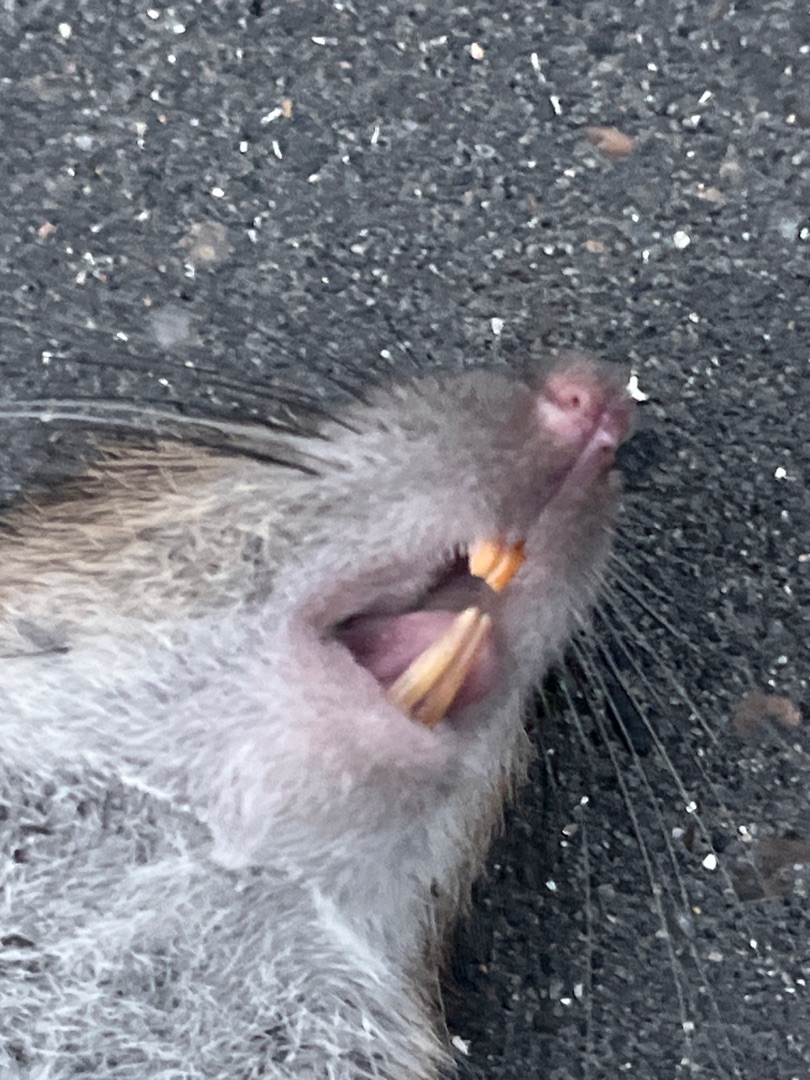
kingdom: Animalia
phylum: Chordata
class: Mammalia
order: Rodentia
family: Muridae
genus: Rattus
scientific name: Rattus norvegicus
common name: Brun rotte
